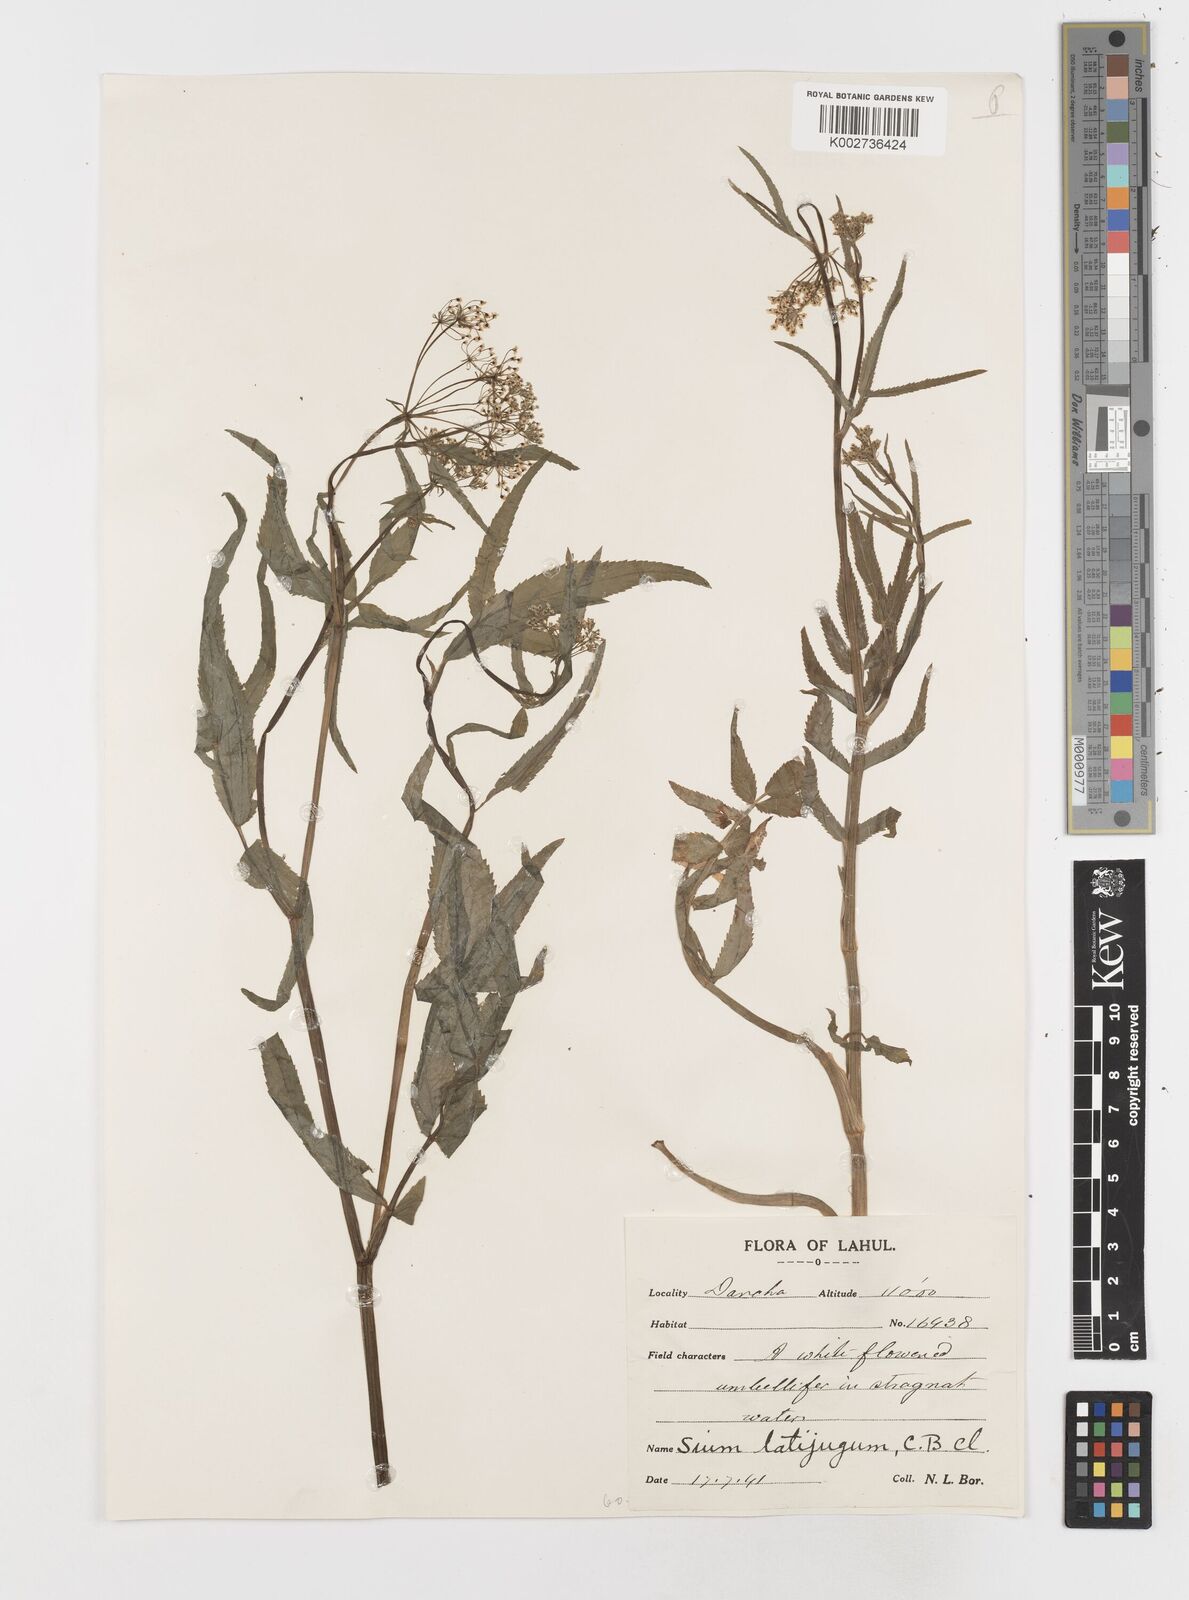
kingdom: Plantae
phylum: Tracheophyta
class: Magnoliopsida
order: Apiales
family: Apiaceae
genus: Sium
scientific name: Sium sisarum
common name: Skirret
